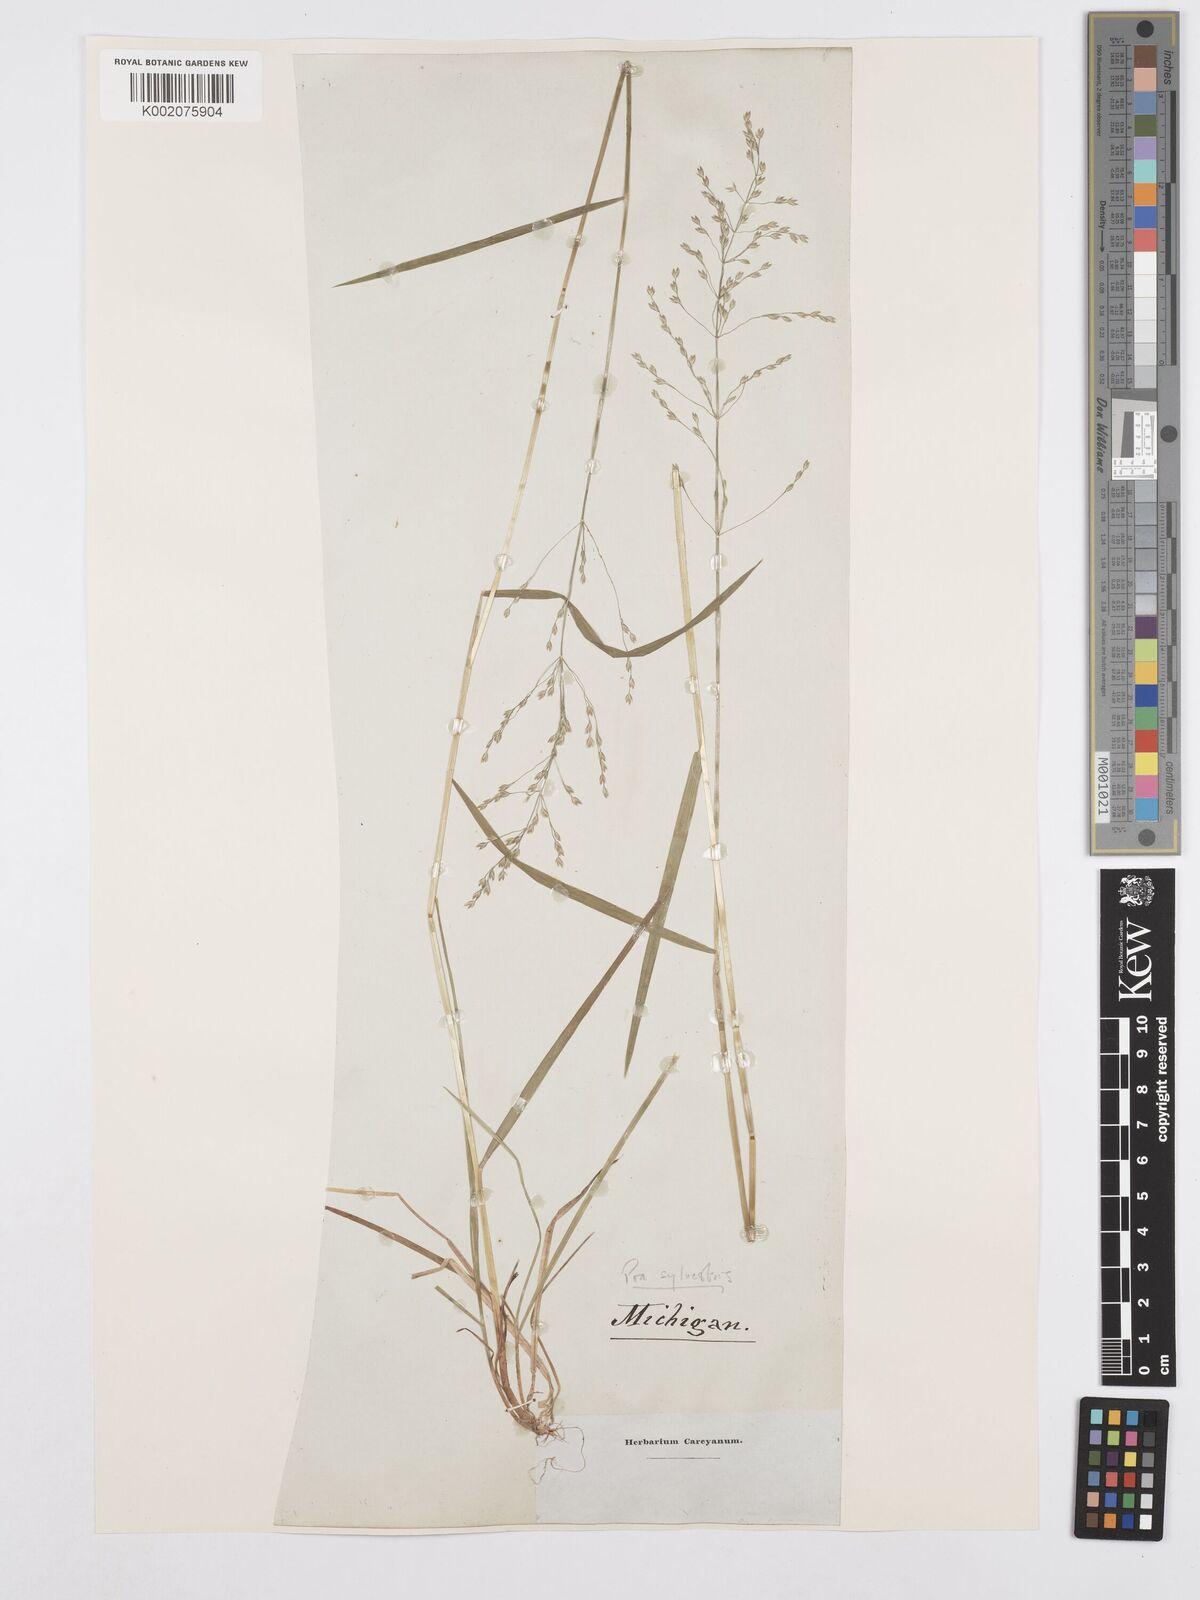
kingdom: Plantae
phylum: Tracheophyta
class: Liliopsida
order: Poales
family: Poaceae
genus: Poa
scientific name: Poa sylvestris
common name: North american woodland bluegrass
